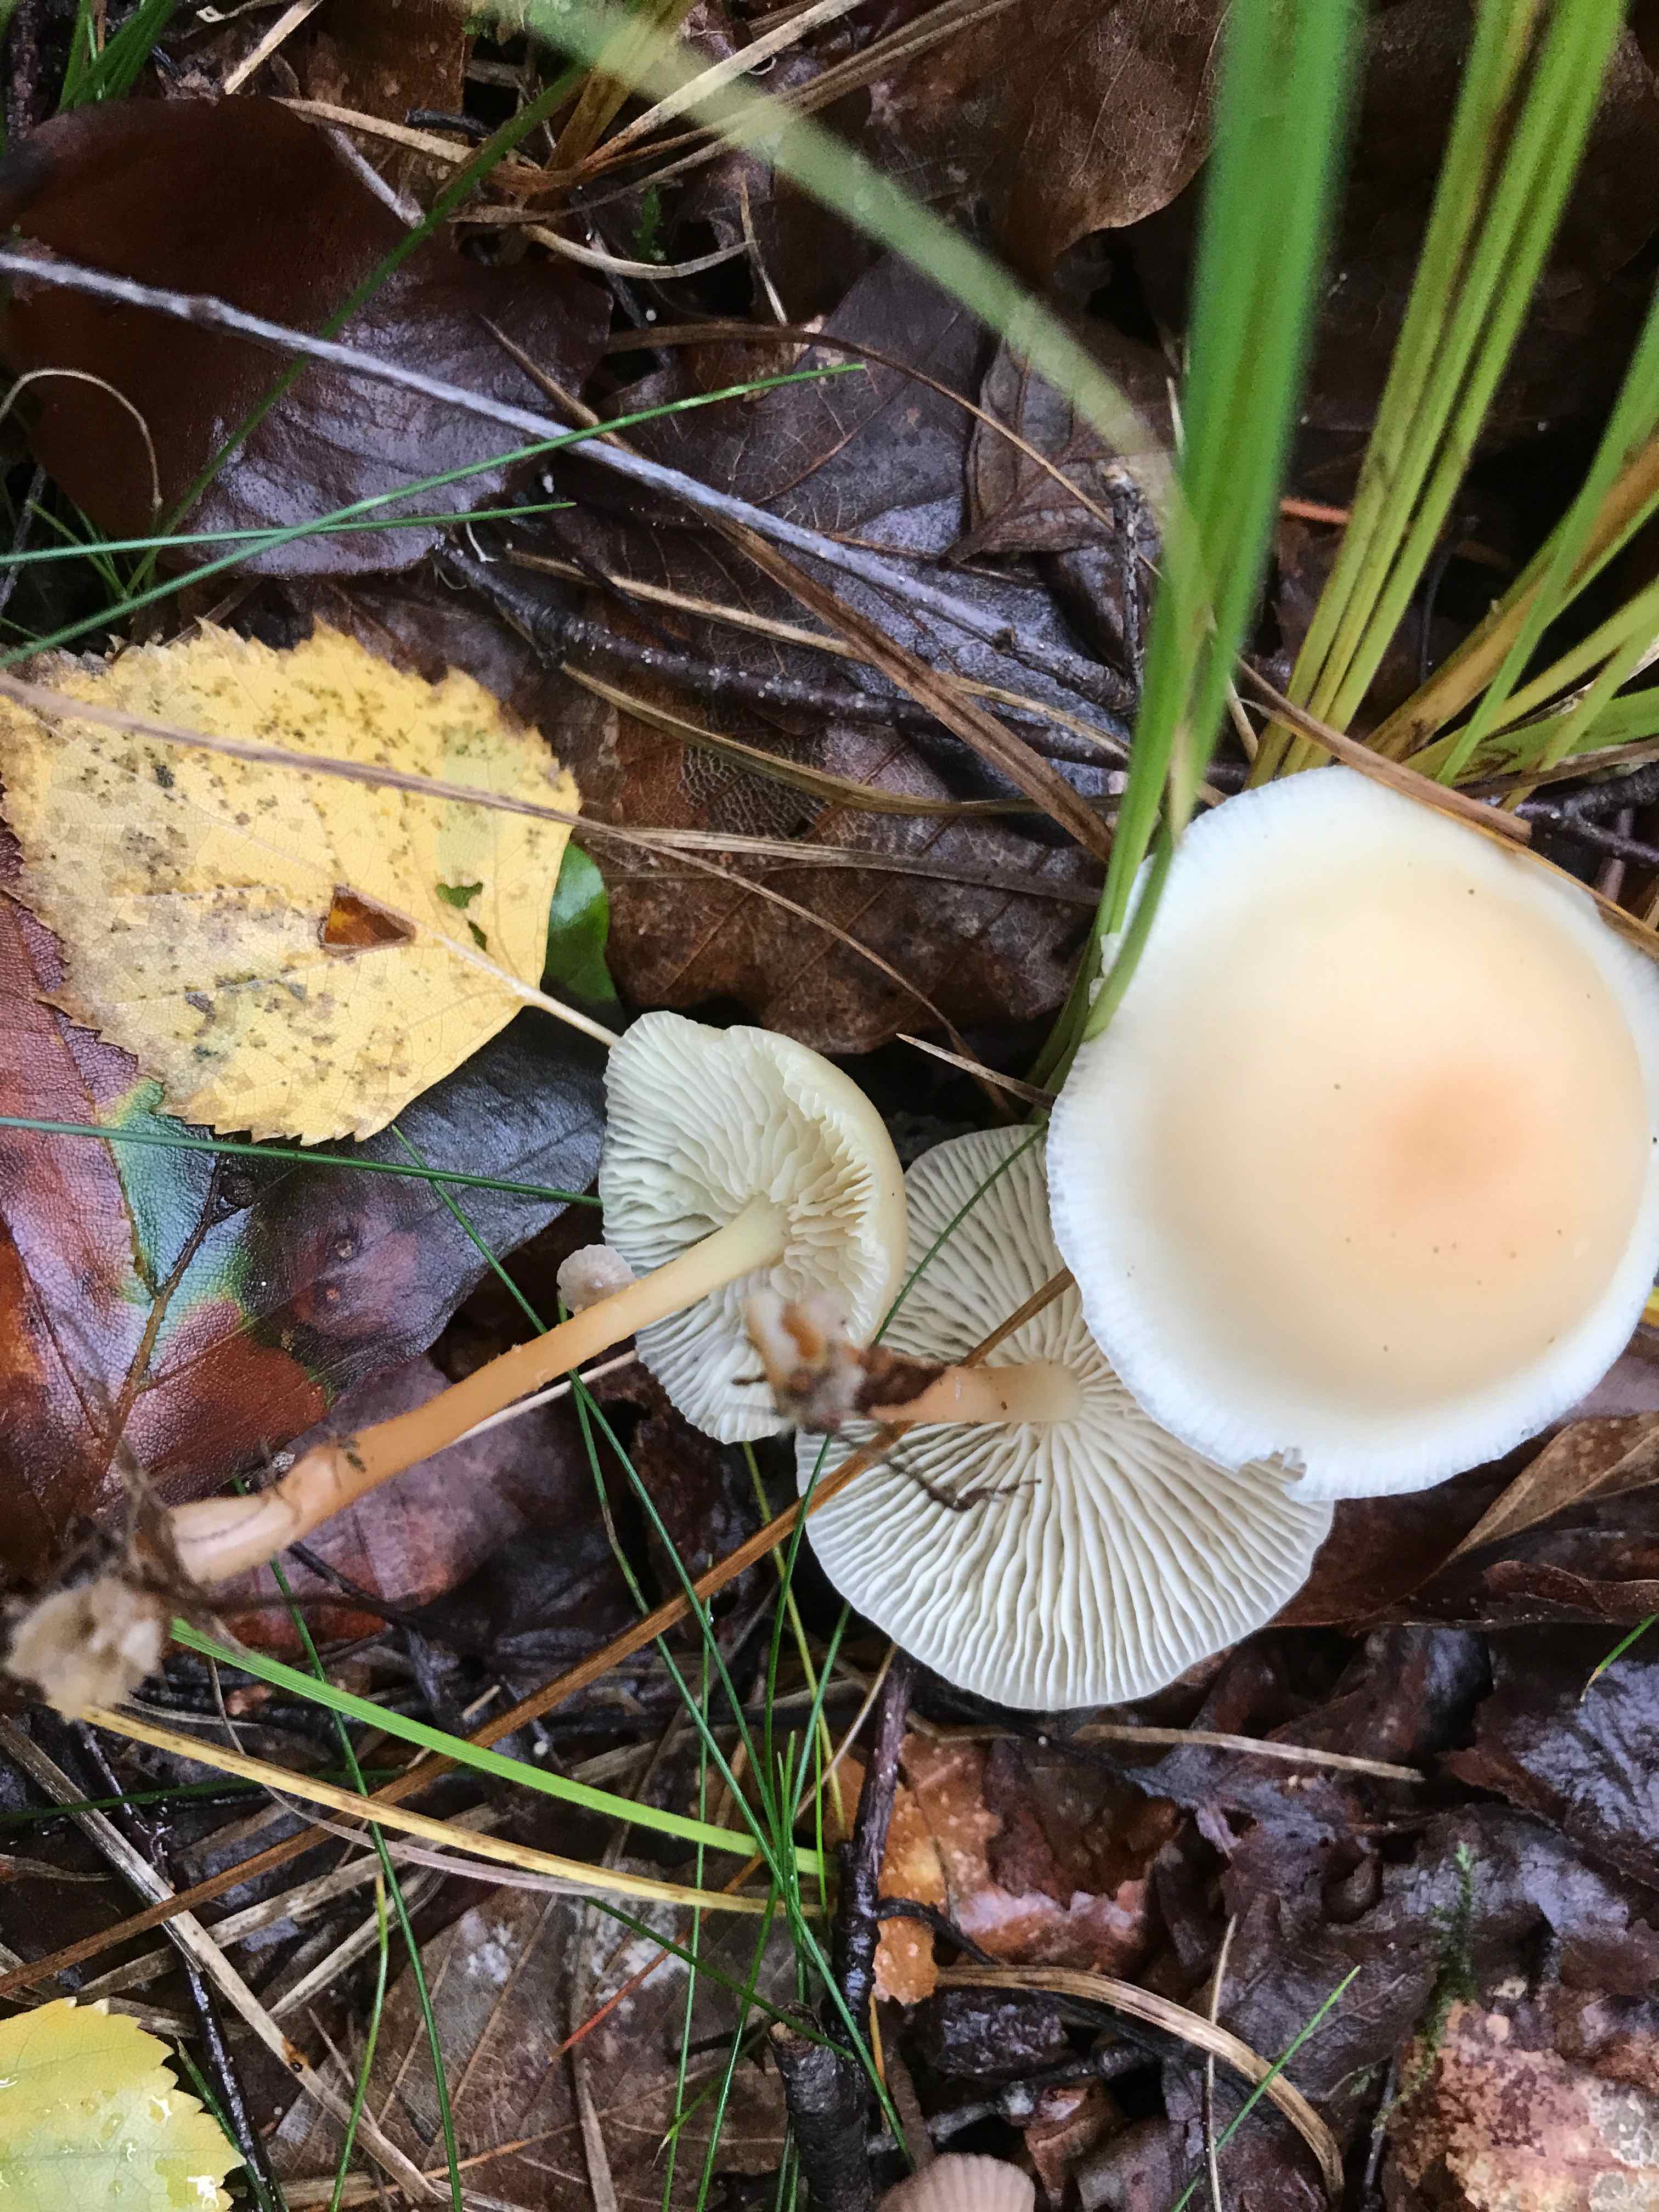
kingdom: Fungi
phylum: Basidiomycota
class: Agaricomycetes
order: Agaricales
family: Omphalotaceae
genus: Gymnopus
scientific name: Gymnopus
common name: fladhat
